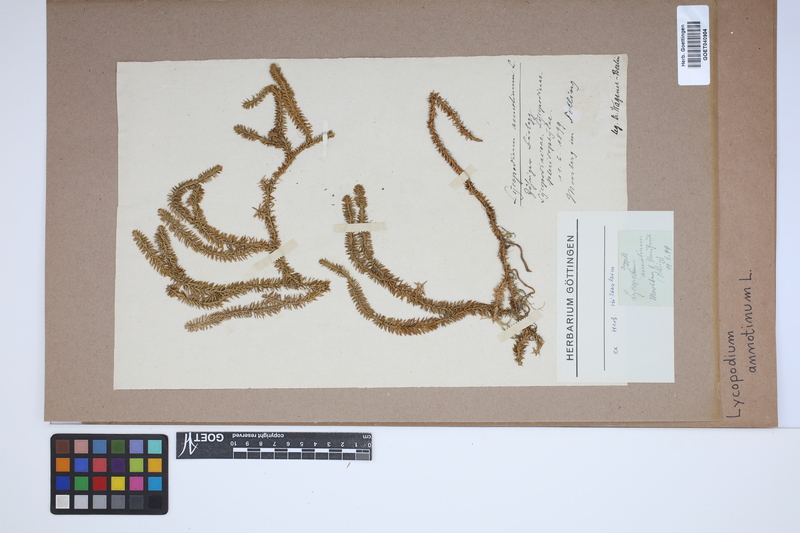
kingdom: Plantae
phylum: Tracheophyta
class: Lycopodiopsida
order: Lycopodiales
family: Lycopodiaceae
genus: Spinulum
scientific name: Spinulum annotinum
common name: Interrupted club-moss
